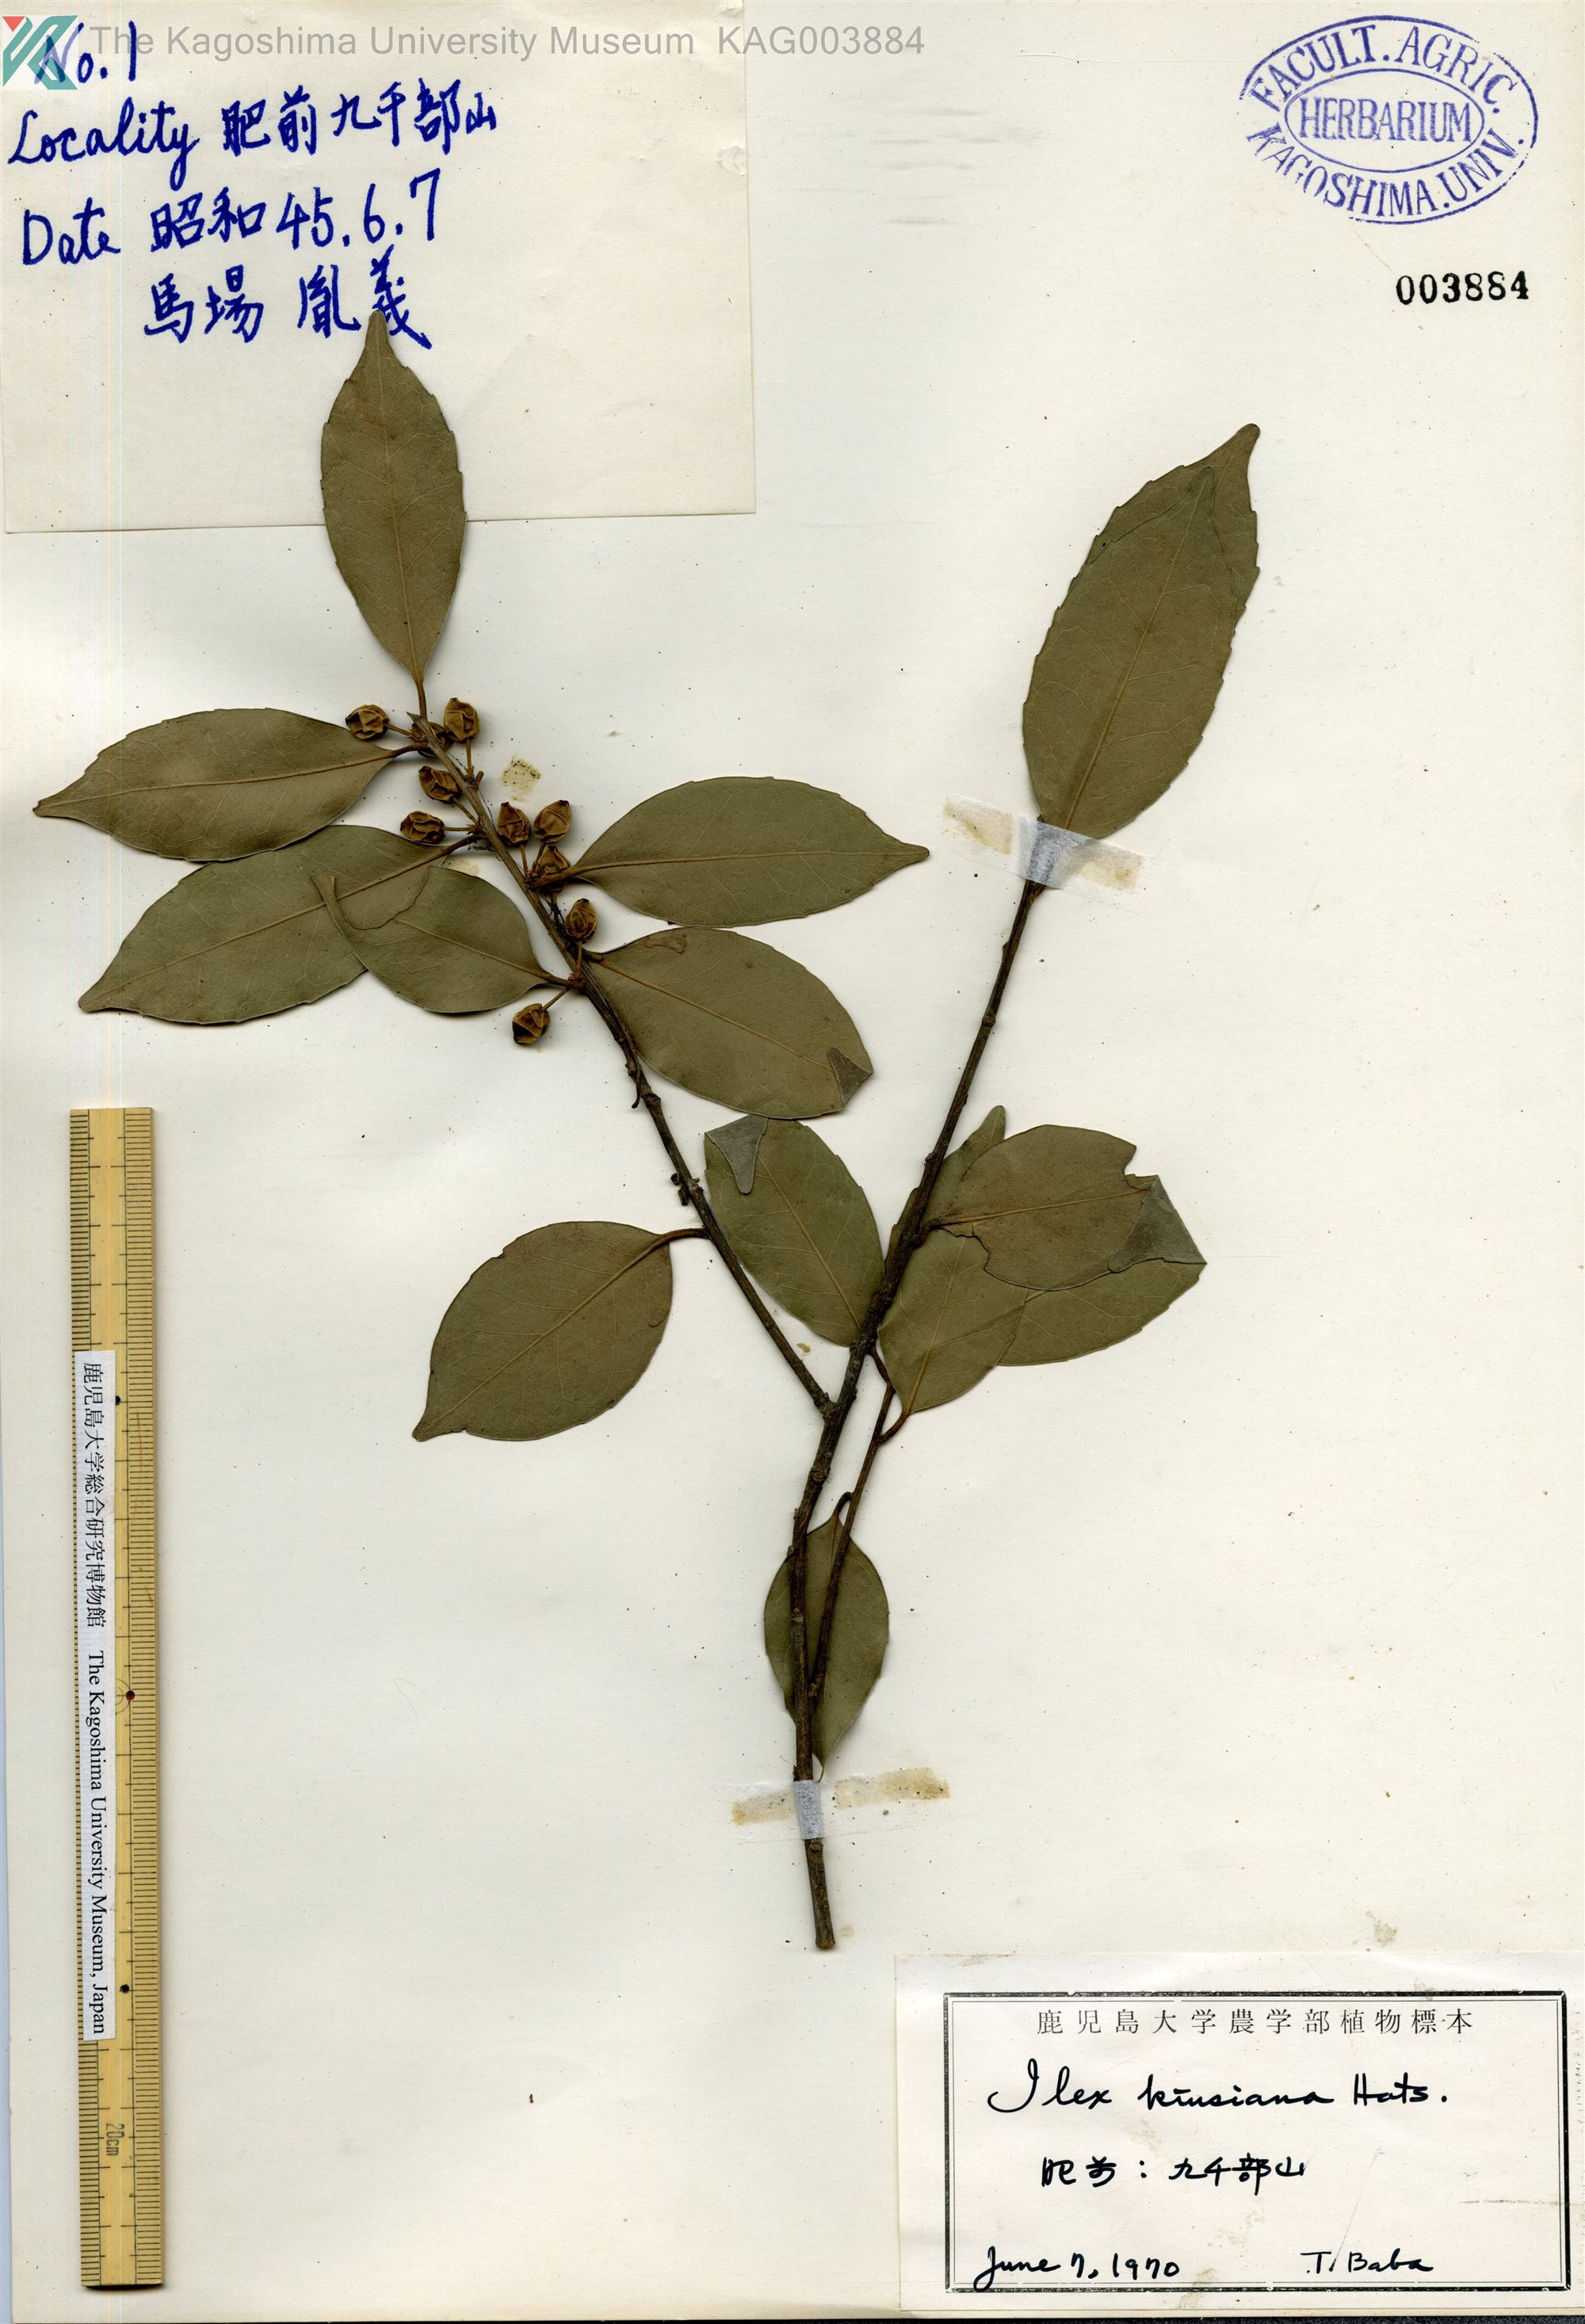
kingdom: Plantae
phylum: Tracheophyta
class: Magnoliopsida
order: Aquifoliales
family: Aquifoliaceae
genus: Ilex
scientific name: Ilex kiusiana
